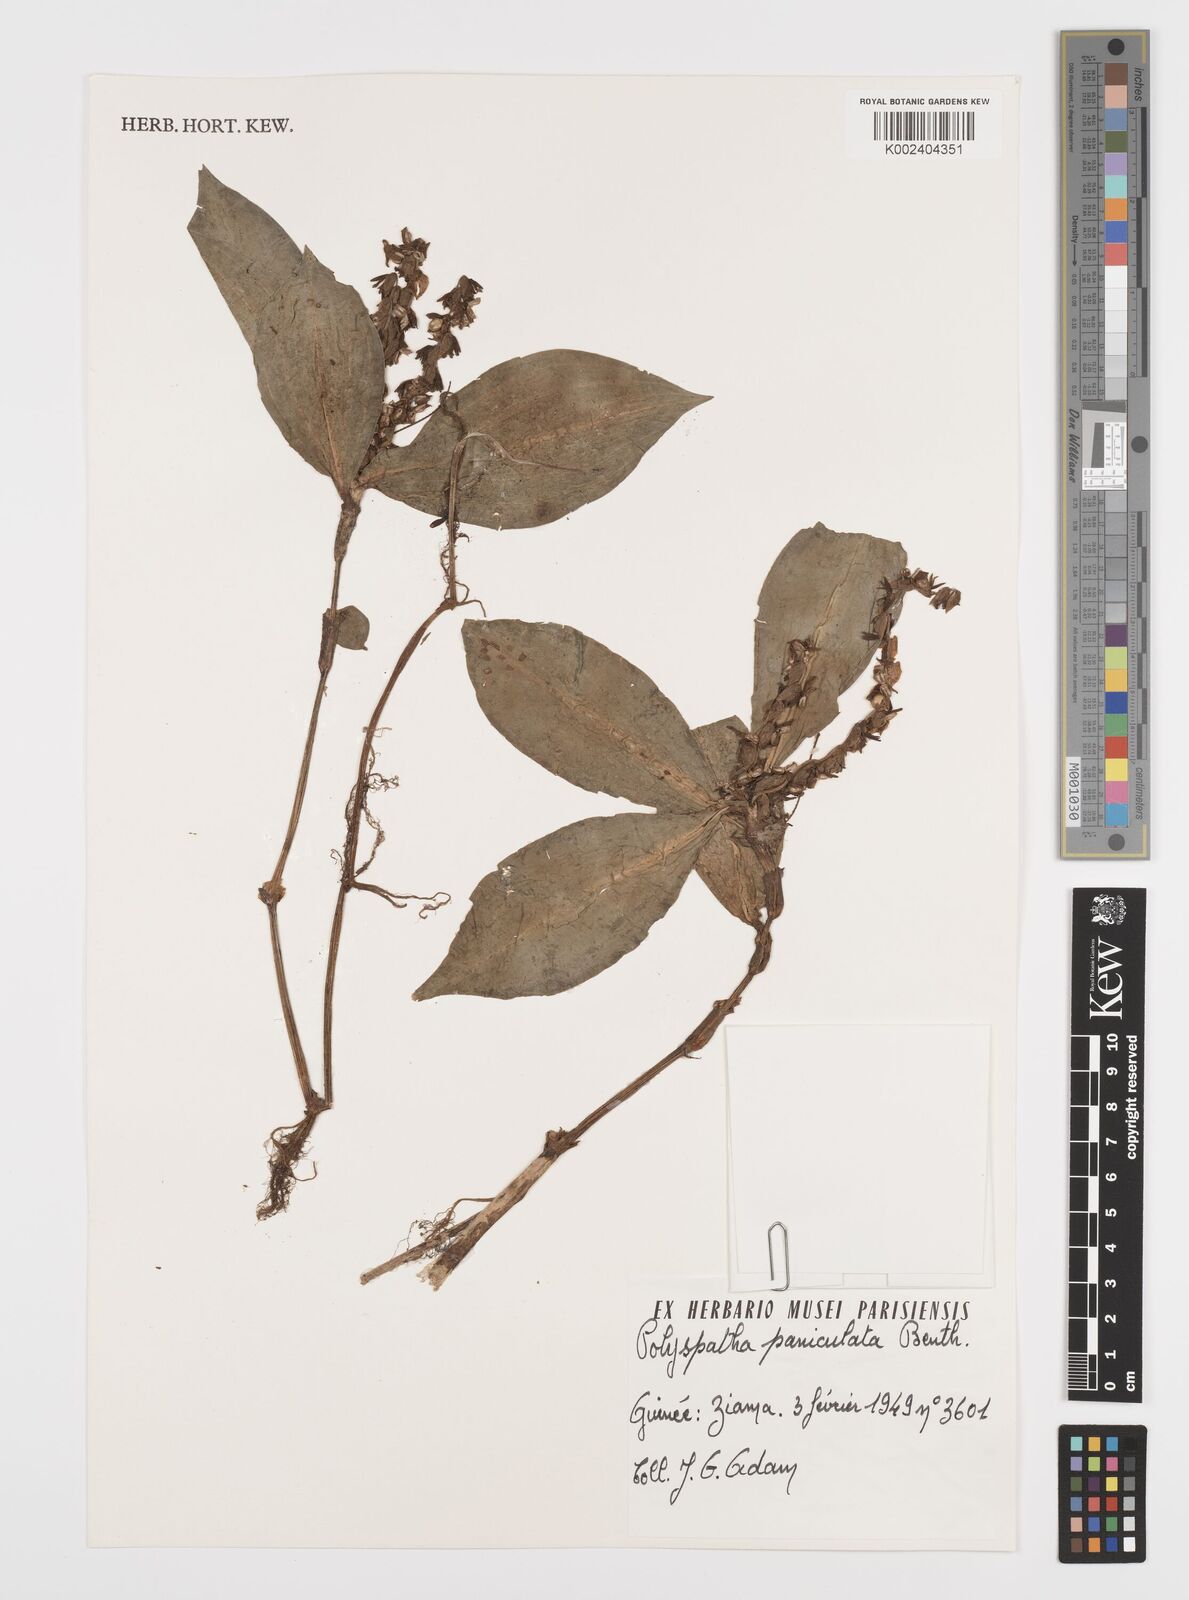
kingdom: Plantae
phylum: Tracheophyta
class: Liliopsida
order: Commelinales
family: Commelinaceae
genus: Polyspatha
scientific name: Polyspatha paniculata
